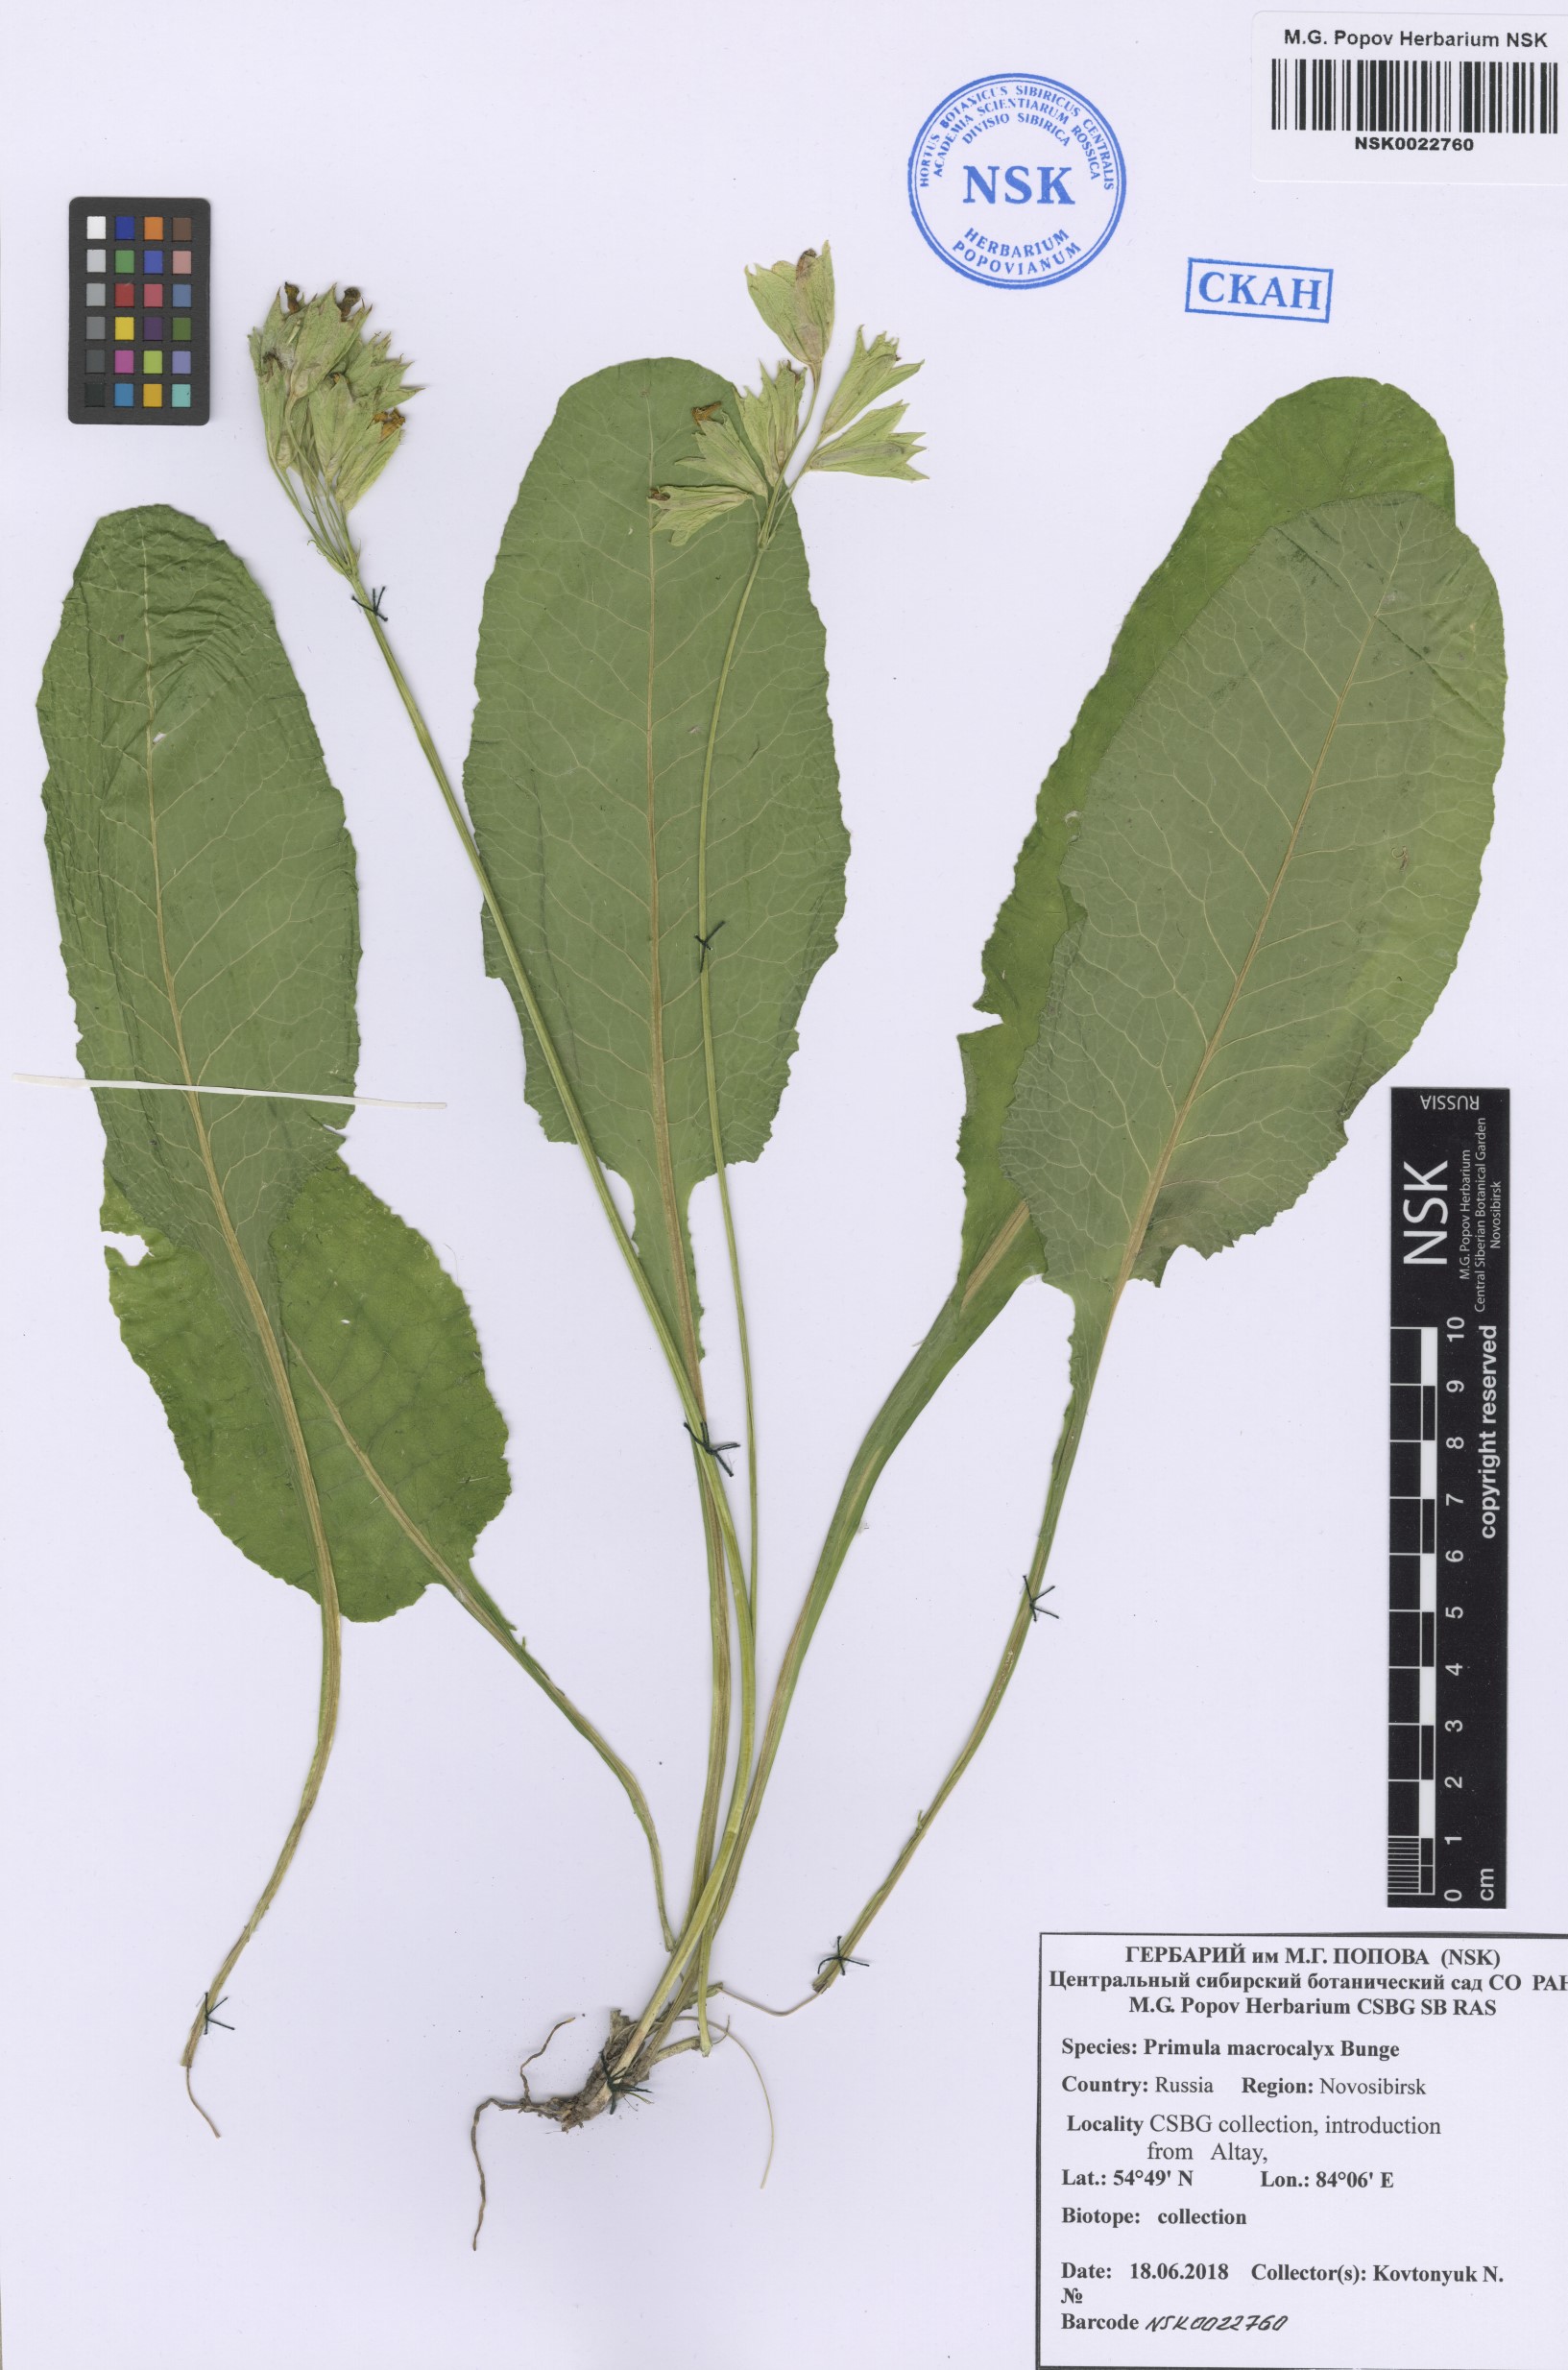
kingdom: Plantae
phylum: Tracheophyta
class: Magnoliopsida
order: Ericales
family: Primulaceae
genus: Primula
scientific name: Primula veris
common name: Cowslip
